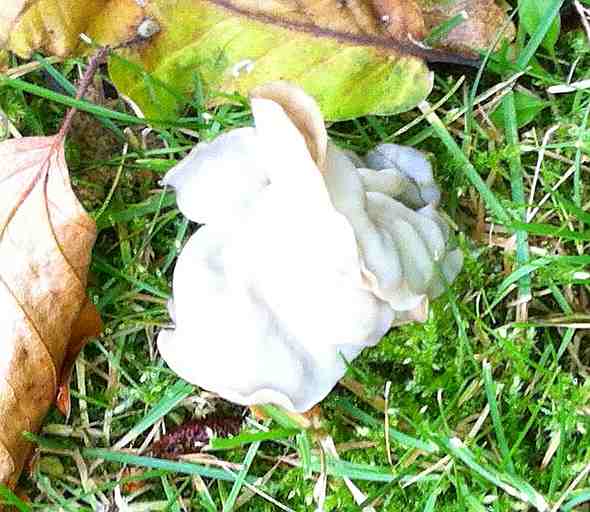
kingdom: Fungi
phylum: Ascomycota
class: Pezizomycetes
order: Pezizales
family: Helvellaceae
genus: Helvella
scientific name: Helvella crispa
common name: kruset foldhat
